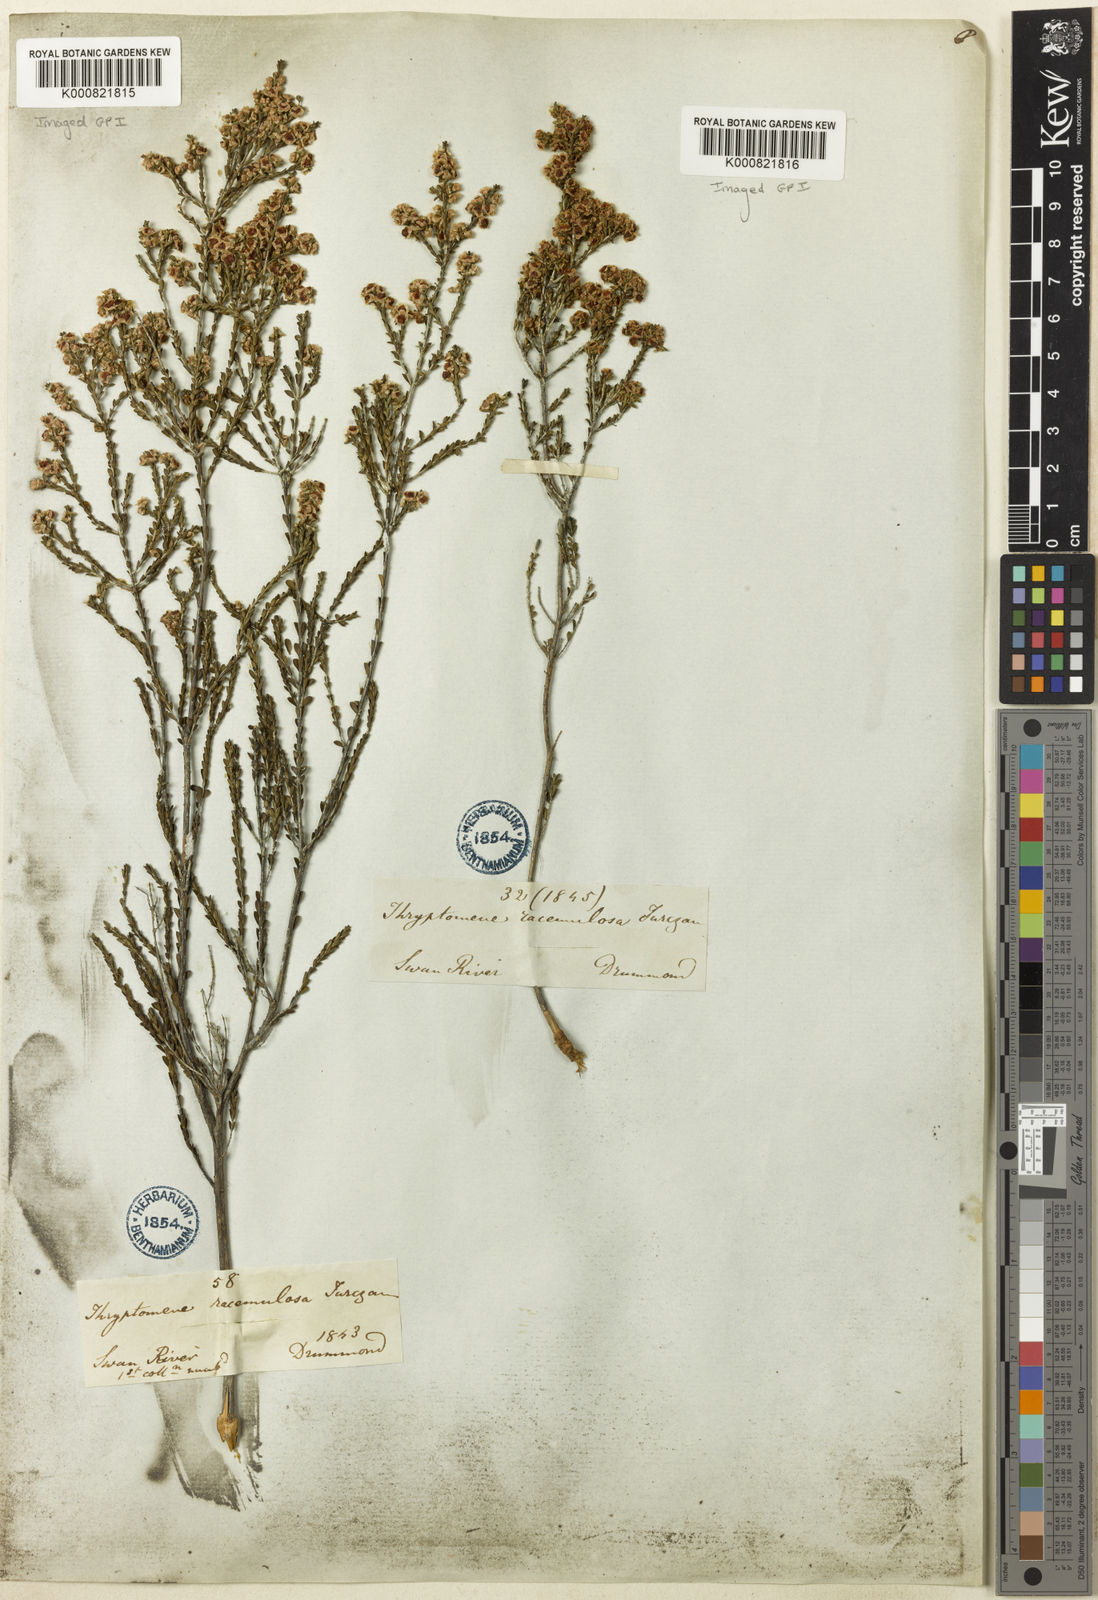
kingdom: Plantae
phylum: Tracheophyta
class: Magnoliopsida
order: Myrtales
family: Myrtaceae
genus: Thryptomene
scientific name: Thryptomene racemulosa
